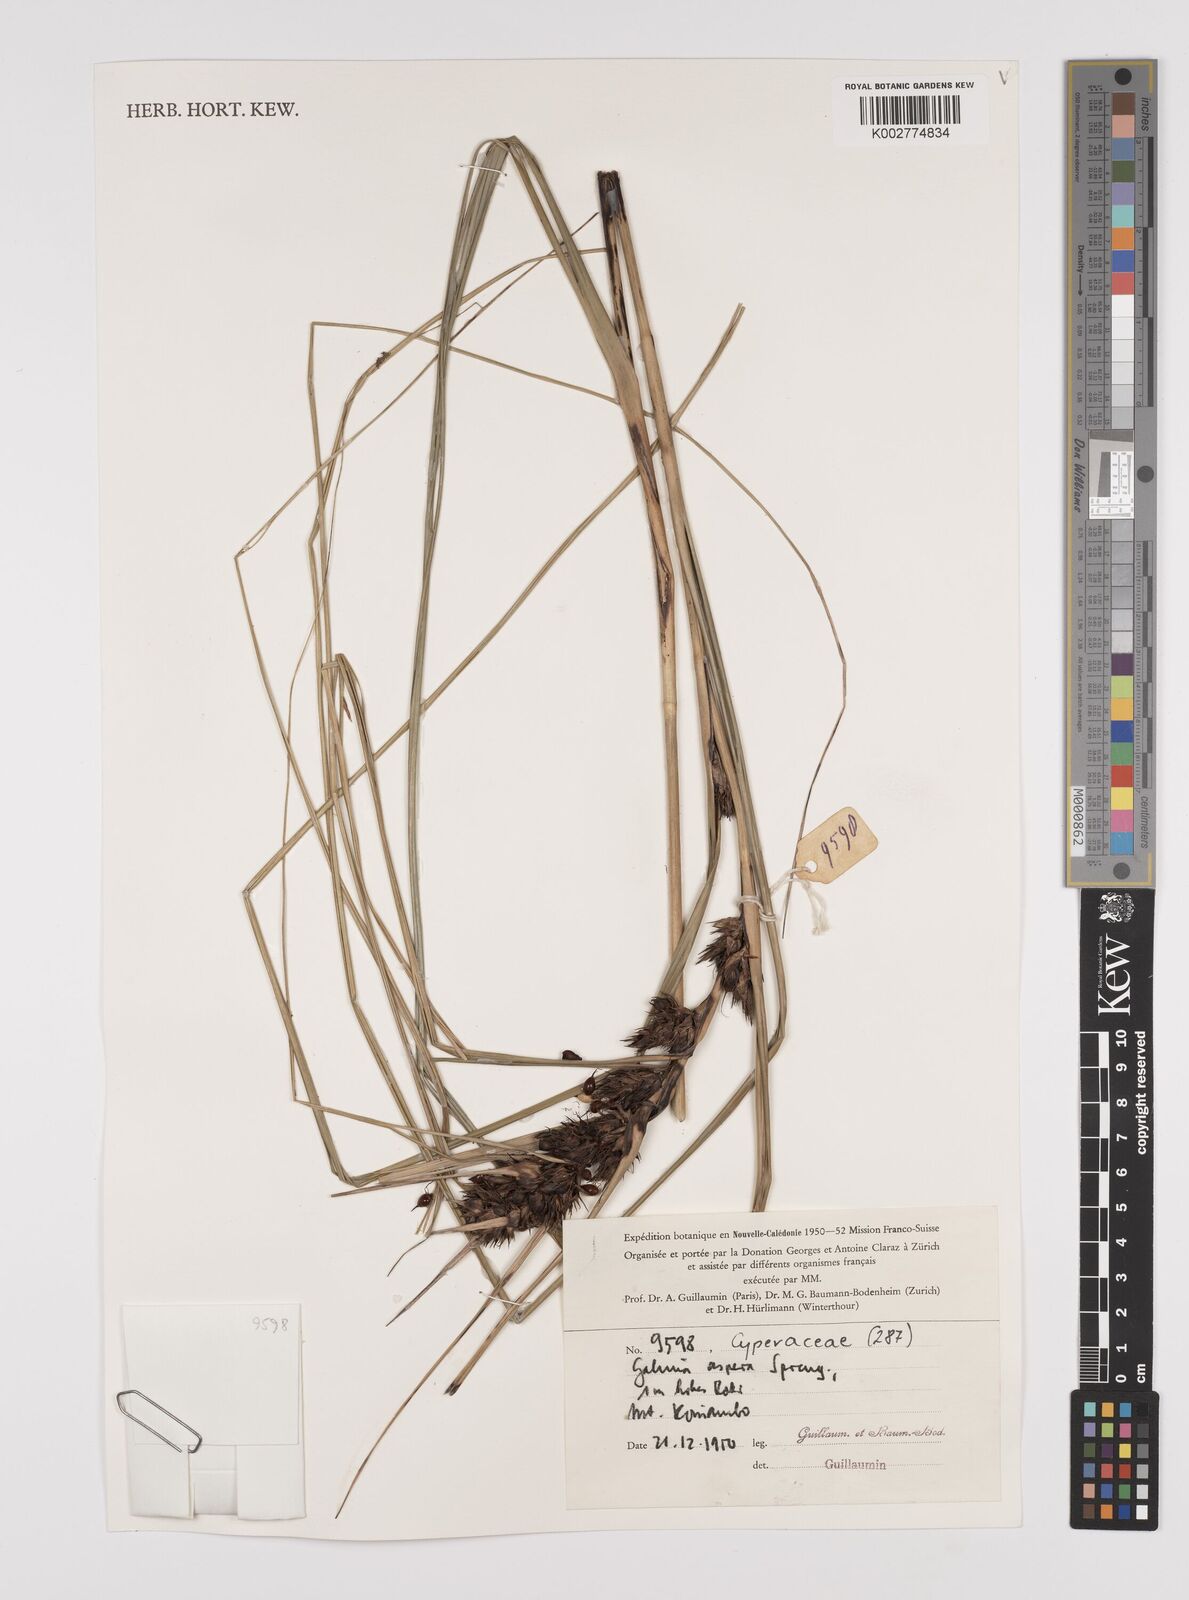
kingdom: Plantae
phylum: Tracheophyta
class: Liliopsida
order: Poales
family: Cyperaceae
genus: Gahnia
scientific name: Gahnia aspera
